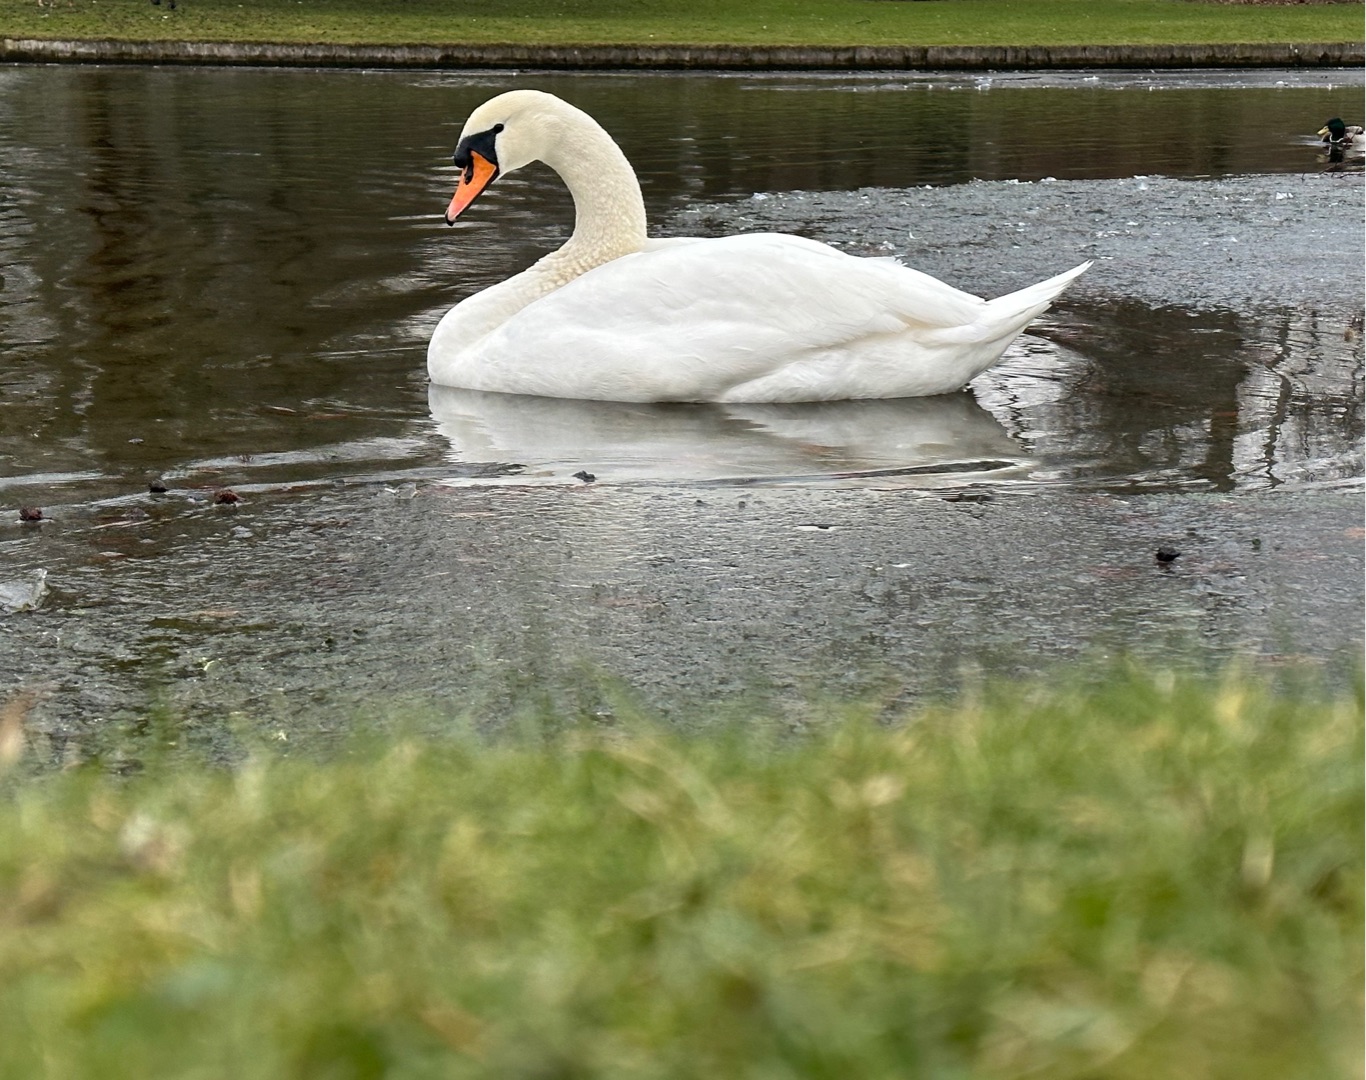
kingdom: Animalia
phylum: Chordata
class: Aves
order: Anseriformes
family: Anatidae
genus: Cygnus
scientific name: Cygnus olor
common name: Knopsvane
